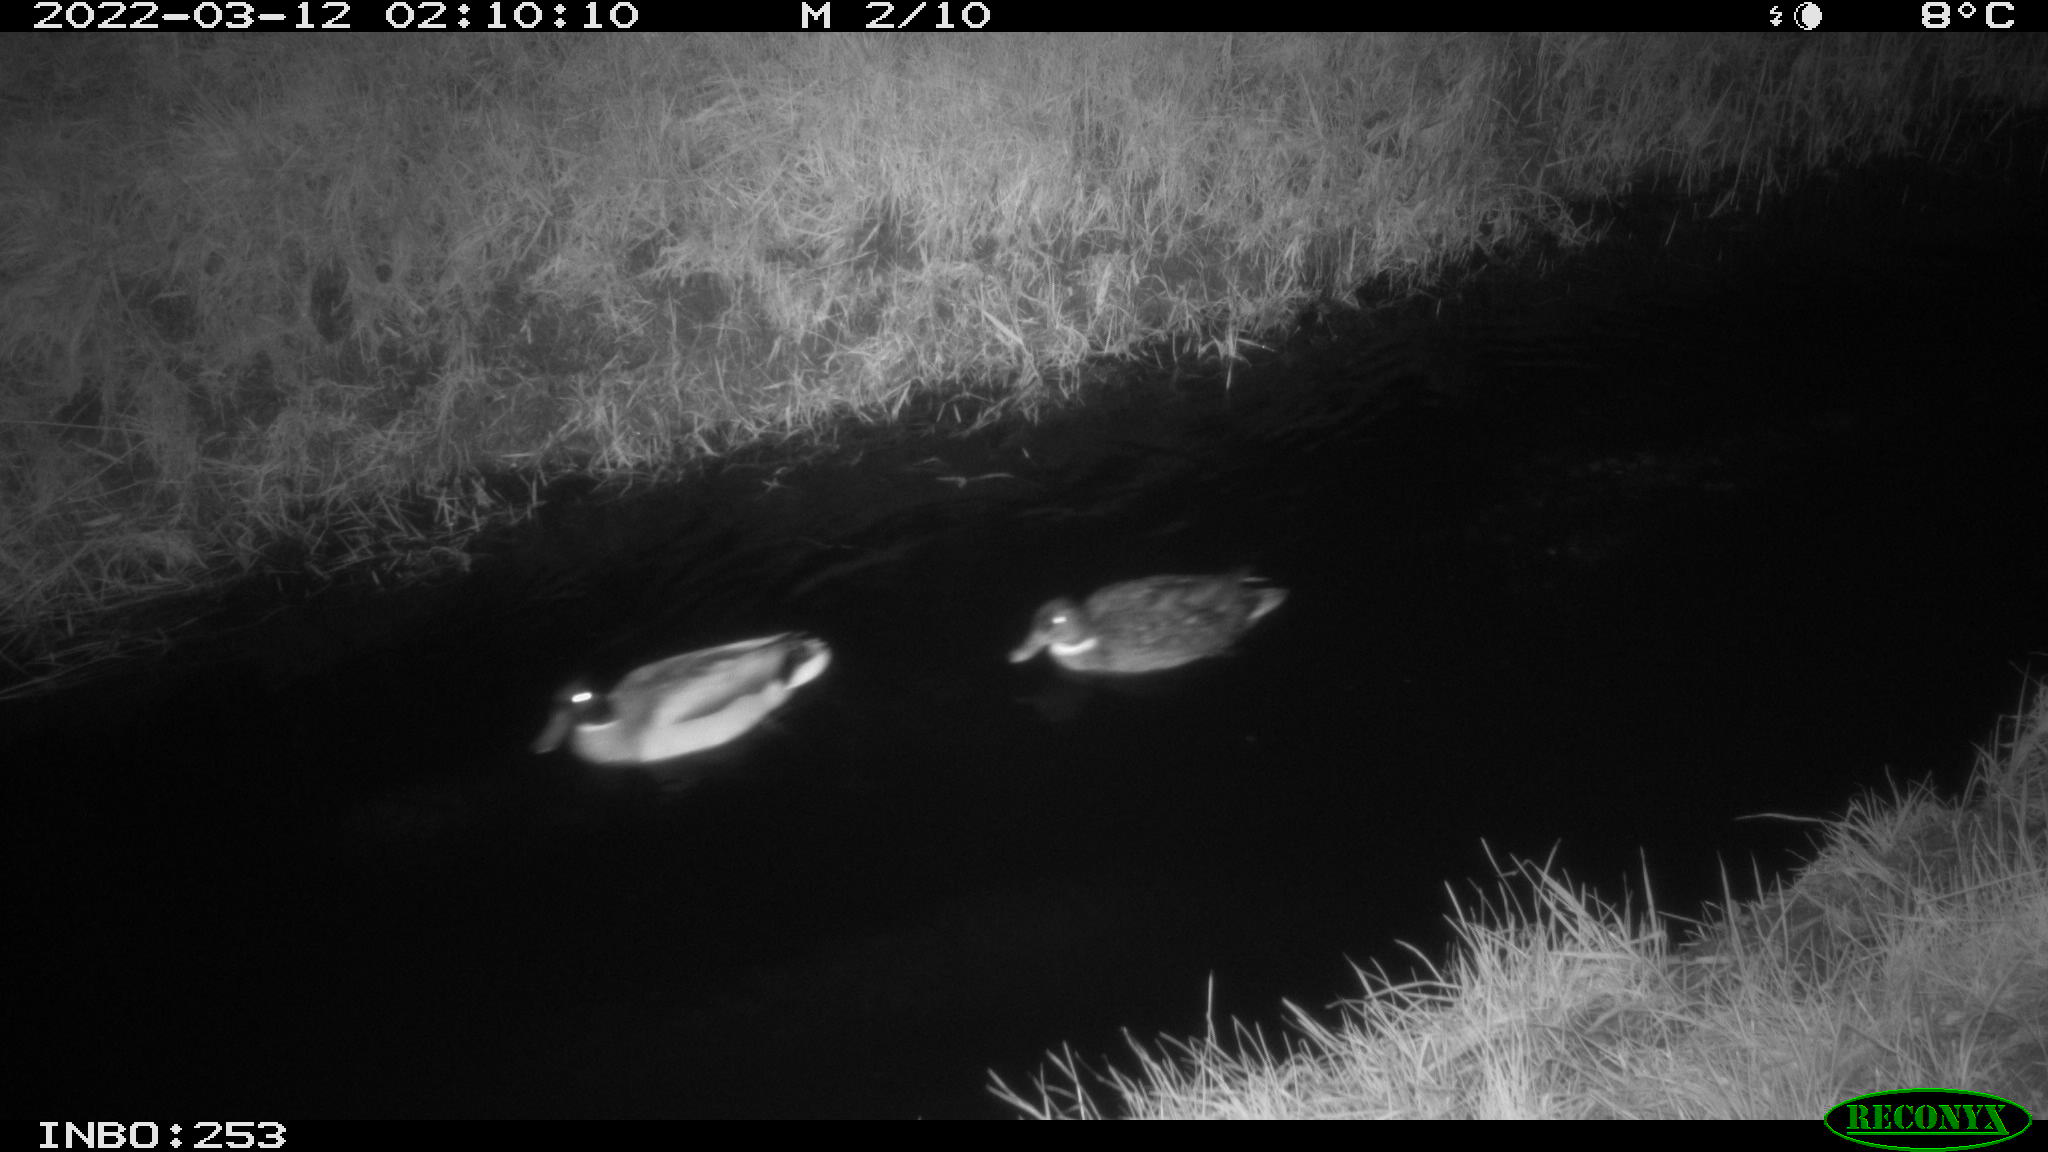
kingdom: Animalia
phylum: Chordata
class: Aves
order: Anseriformes
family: Anatidae
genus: Anas
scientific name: Anas platyrhynchos
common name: Mallard
